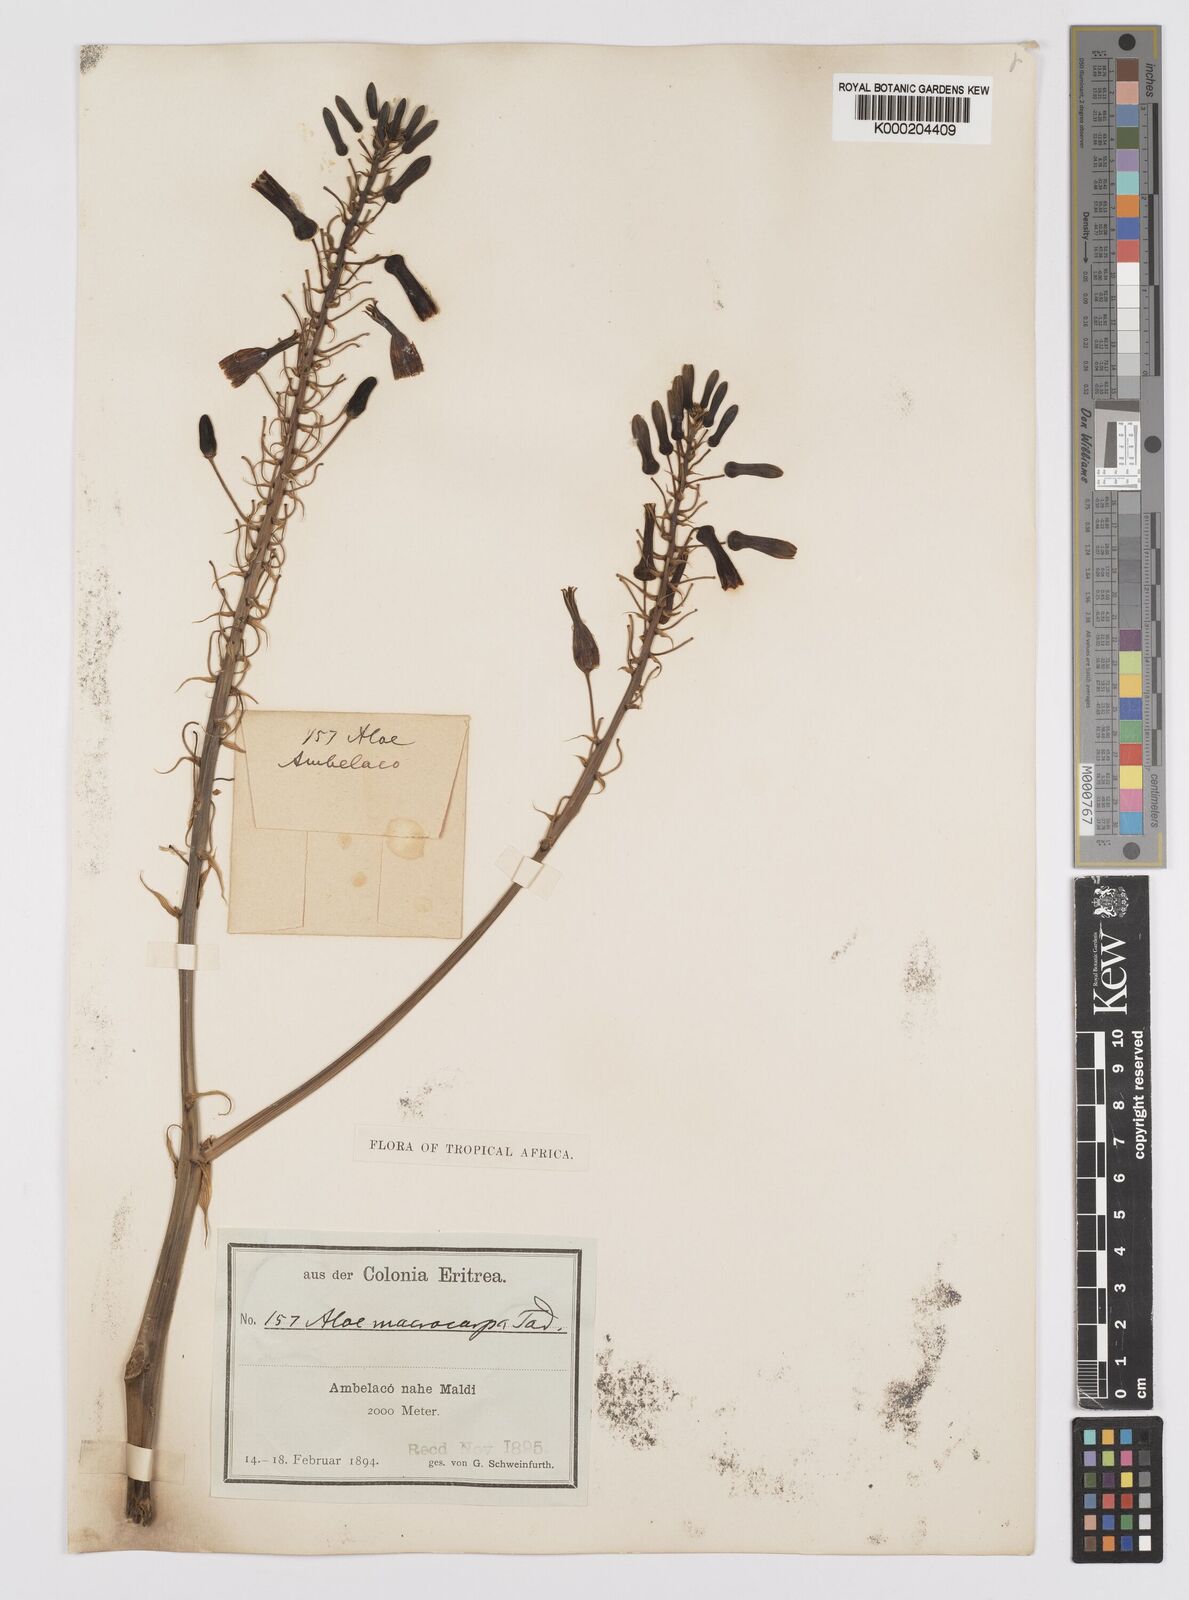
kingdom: Plantae
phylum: Tracheophyta
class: Liliopsida
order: Asparagales
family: Asphodelaceae
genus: Aloe
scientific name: Aloe macrocarpa
